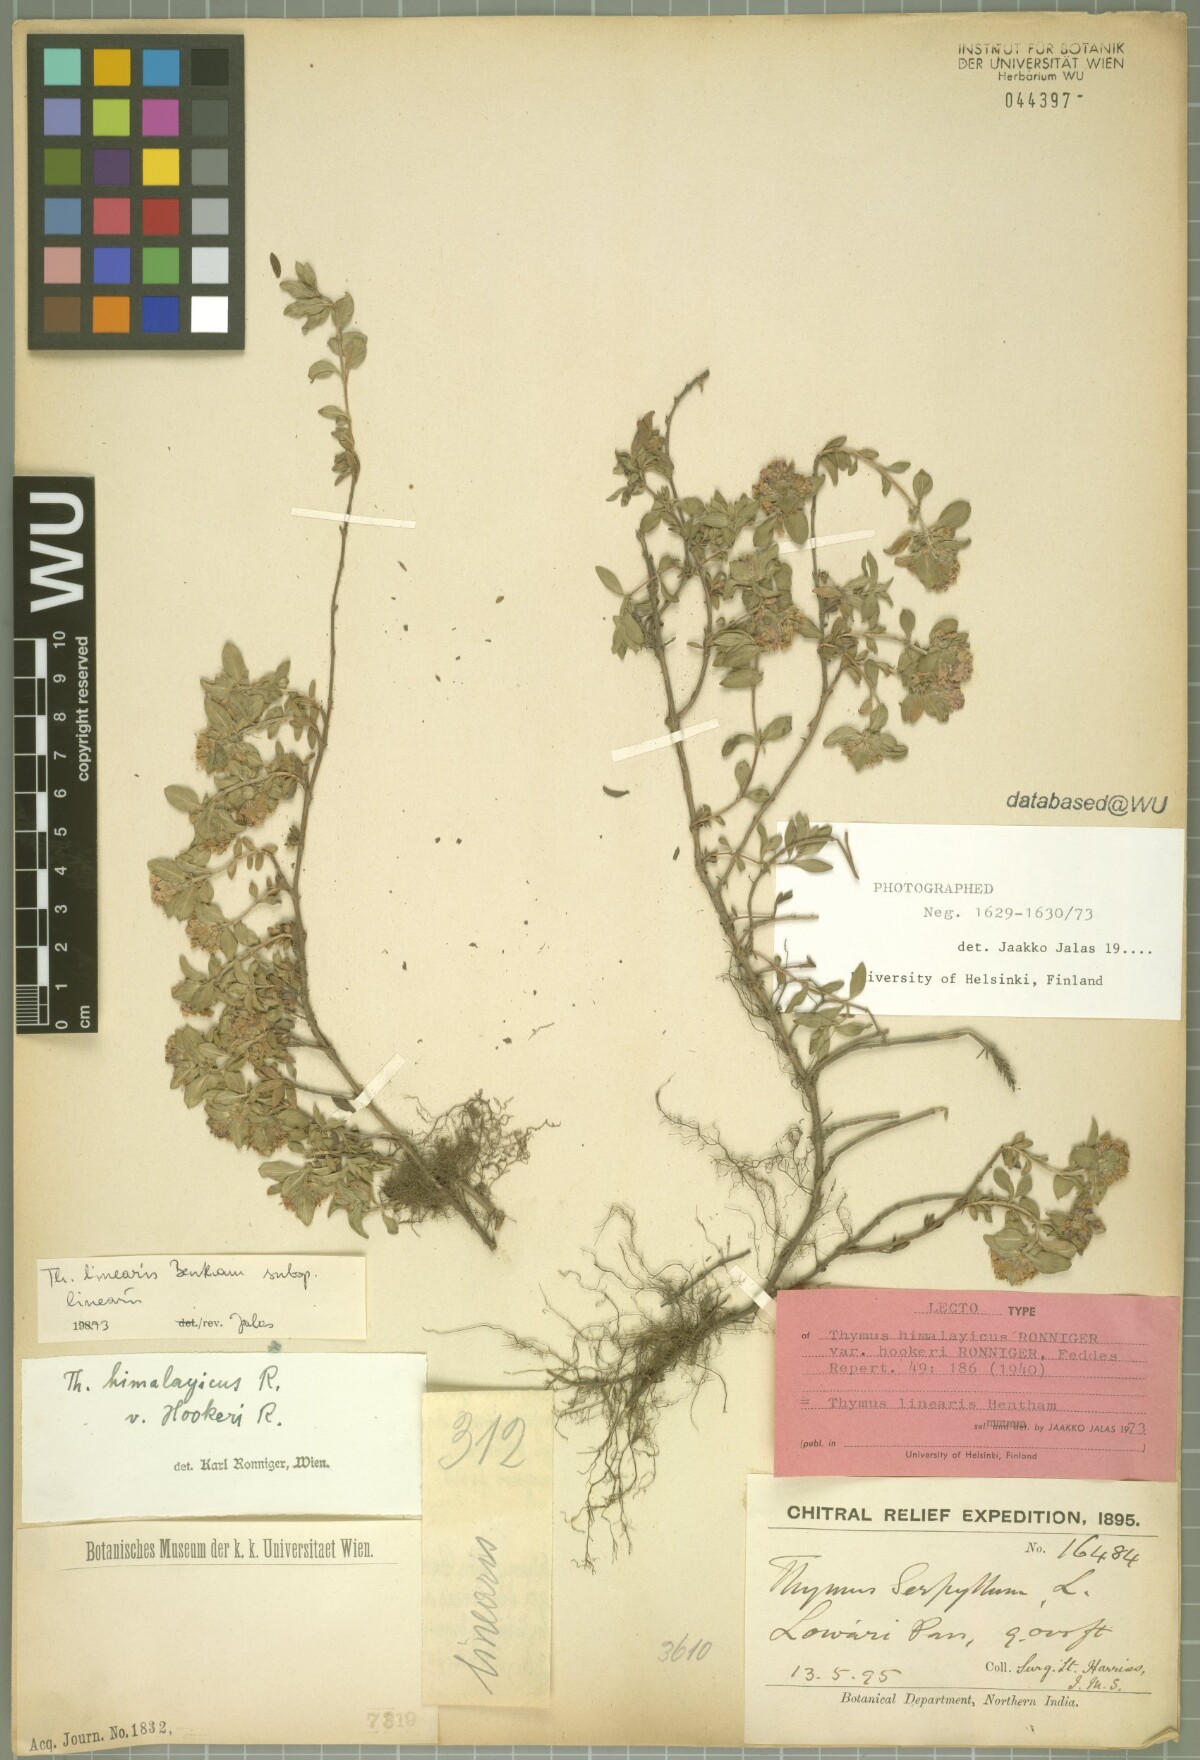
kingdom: Plantae
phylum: Tracheophyta
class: Magnoliopsida
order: Lamiales
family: Lamiaceae
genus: Thymus
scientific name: Thymus linearis
